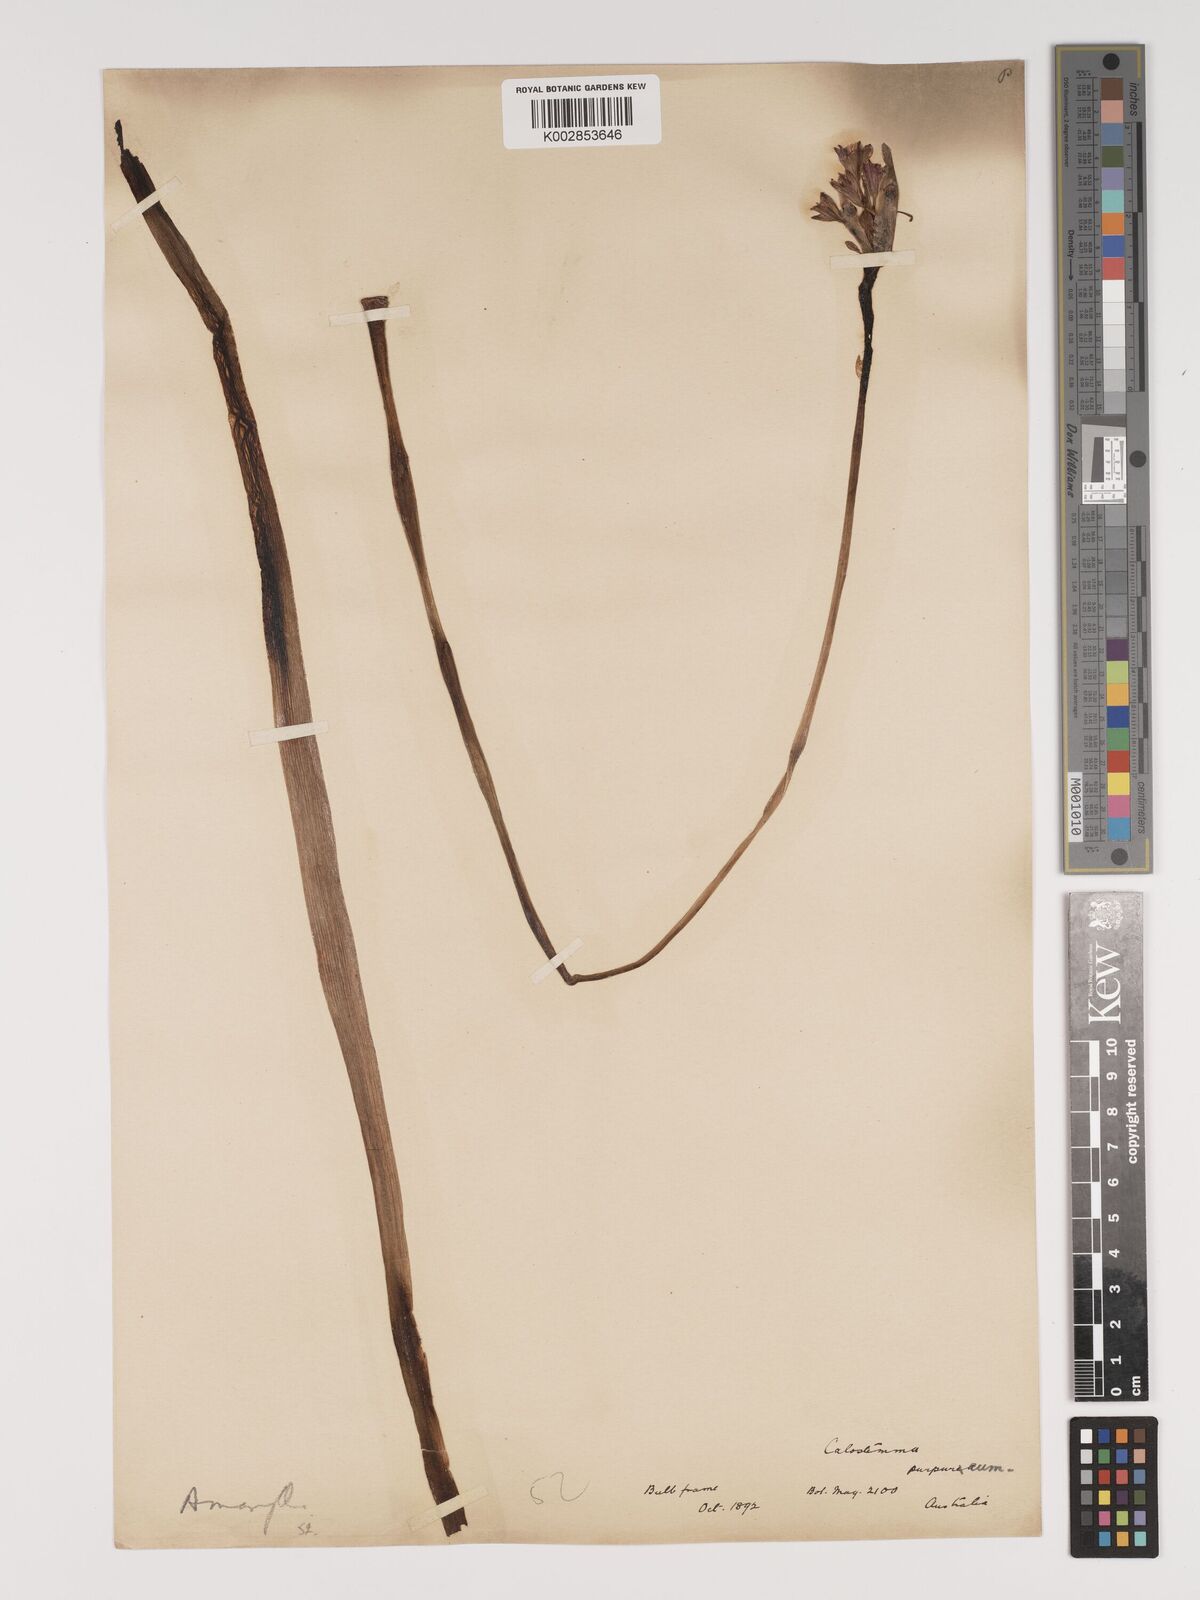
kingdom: Plantae
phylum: Tracheophyta
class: Liliopsida
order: Asparagales
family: Amaryllidaceae
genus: Calostemma
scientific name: Calostemma purpureum
